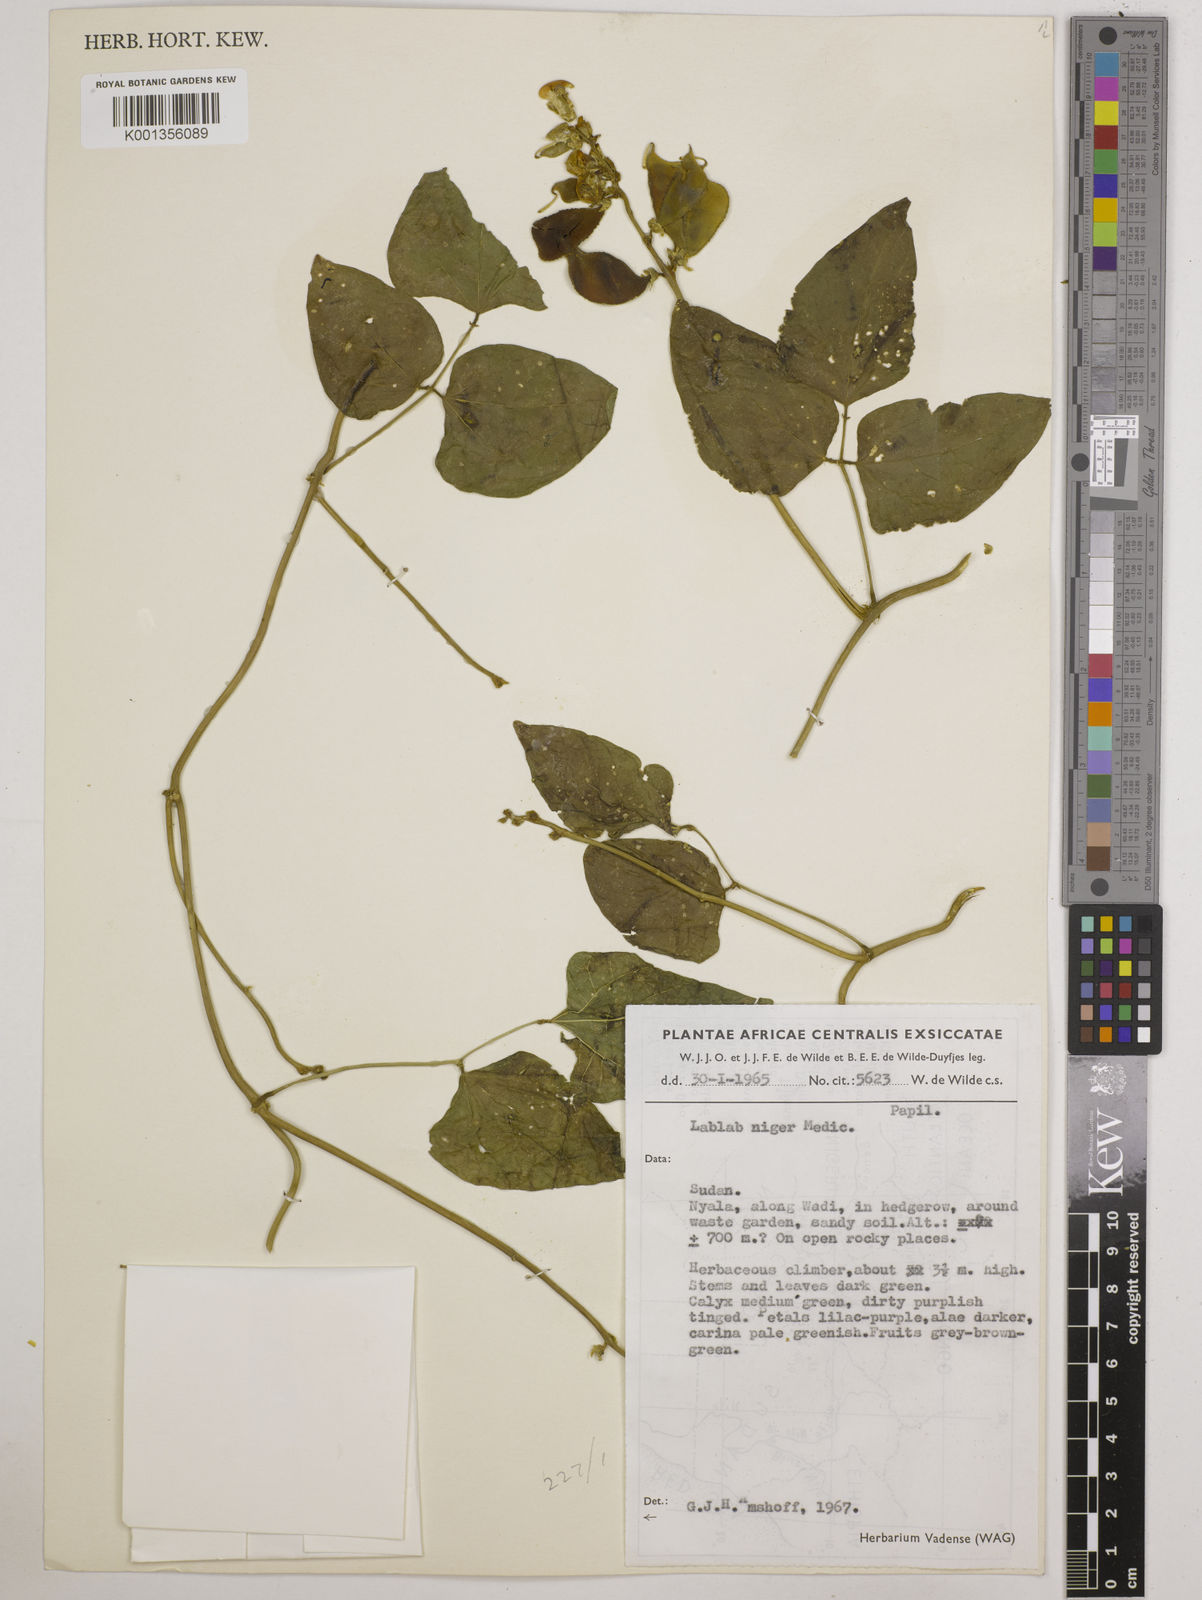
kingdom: Plantae
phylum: Tracheophyta
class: Magnoliopsida
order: Fabales
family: Fabaceae
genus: Lablab
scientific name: Lablab purpureus
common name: Lablab-bean
